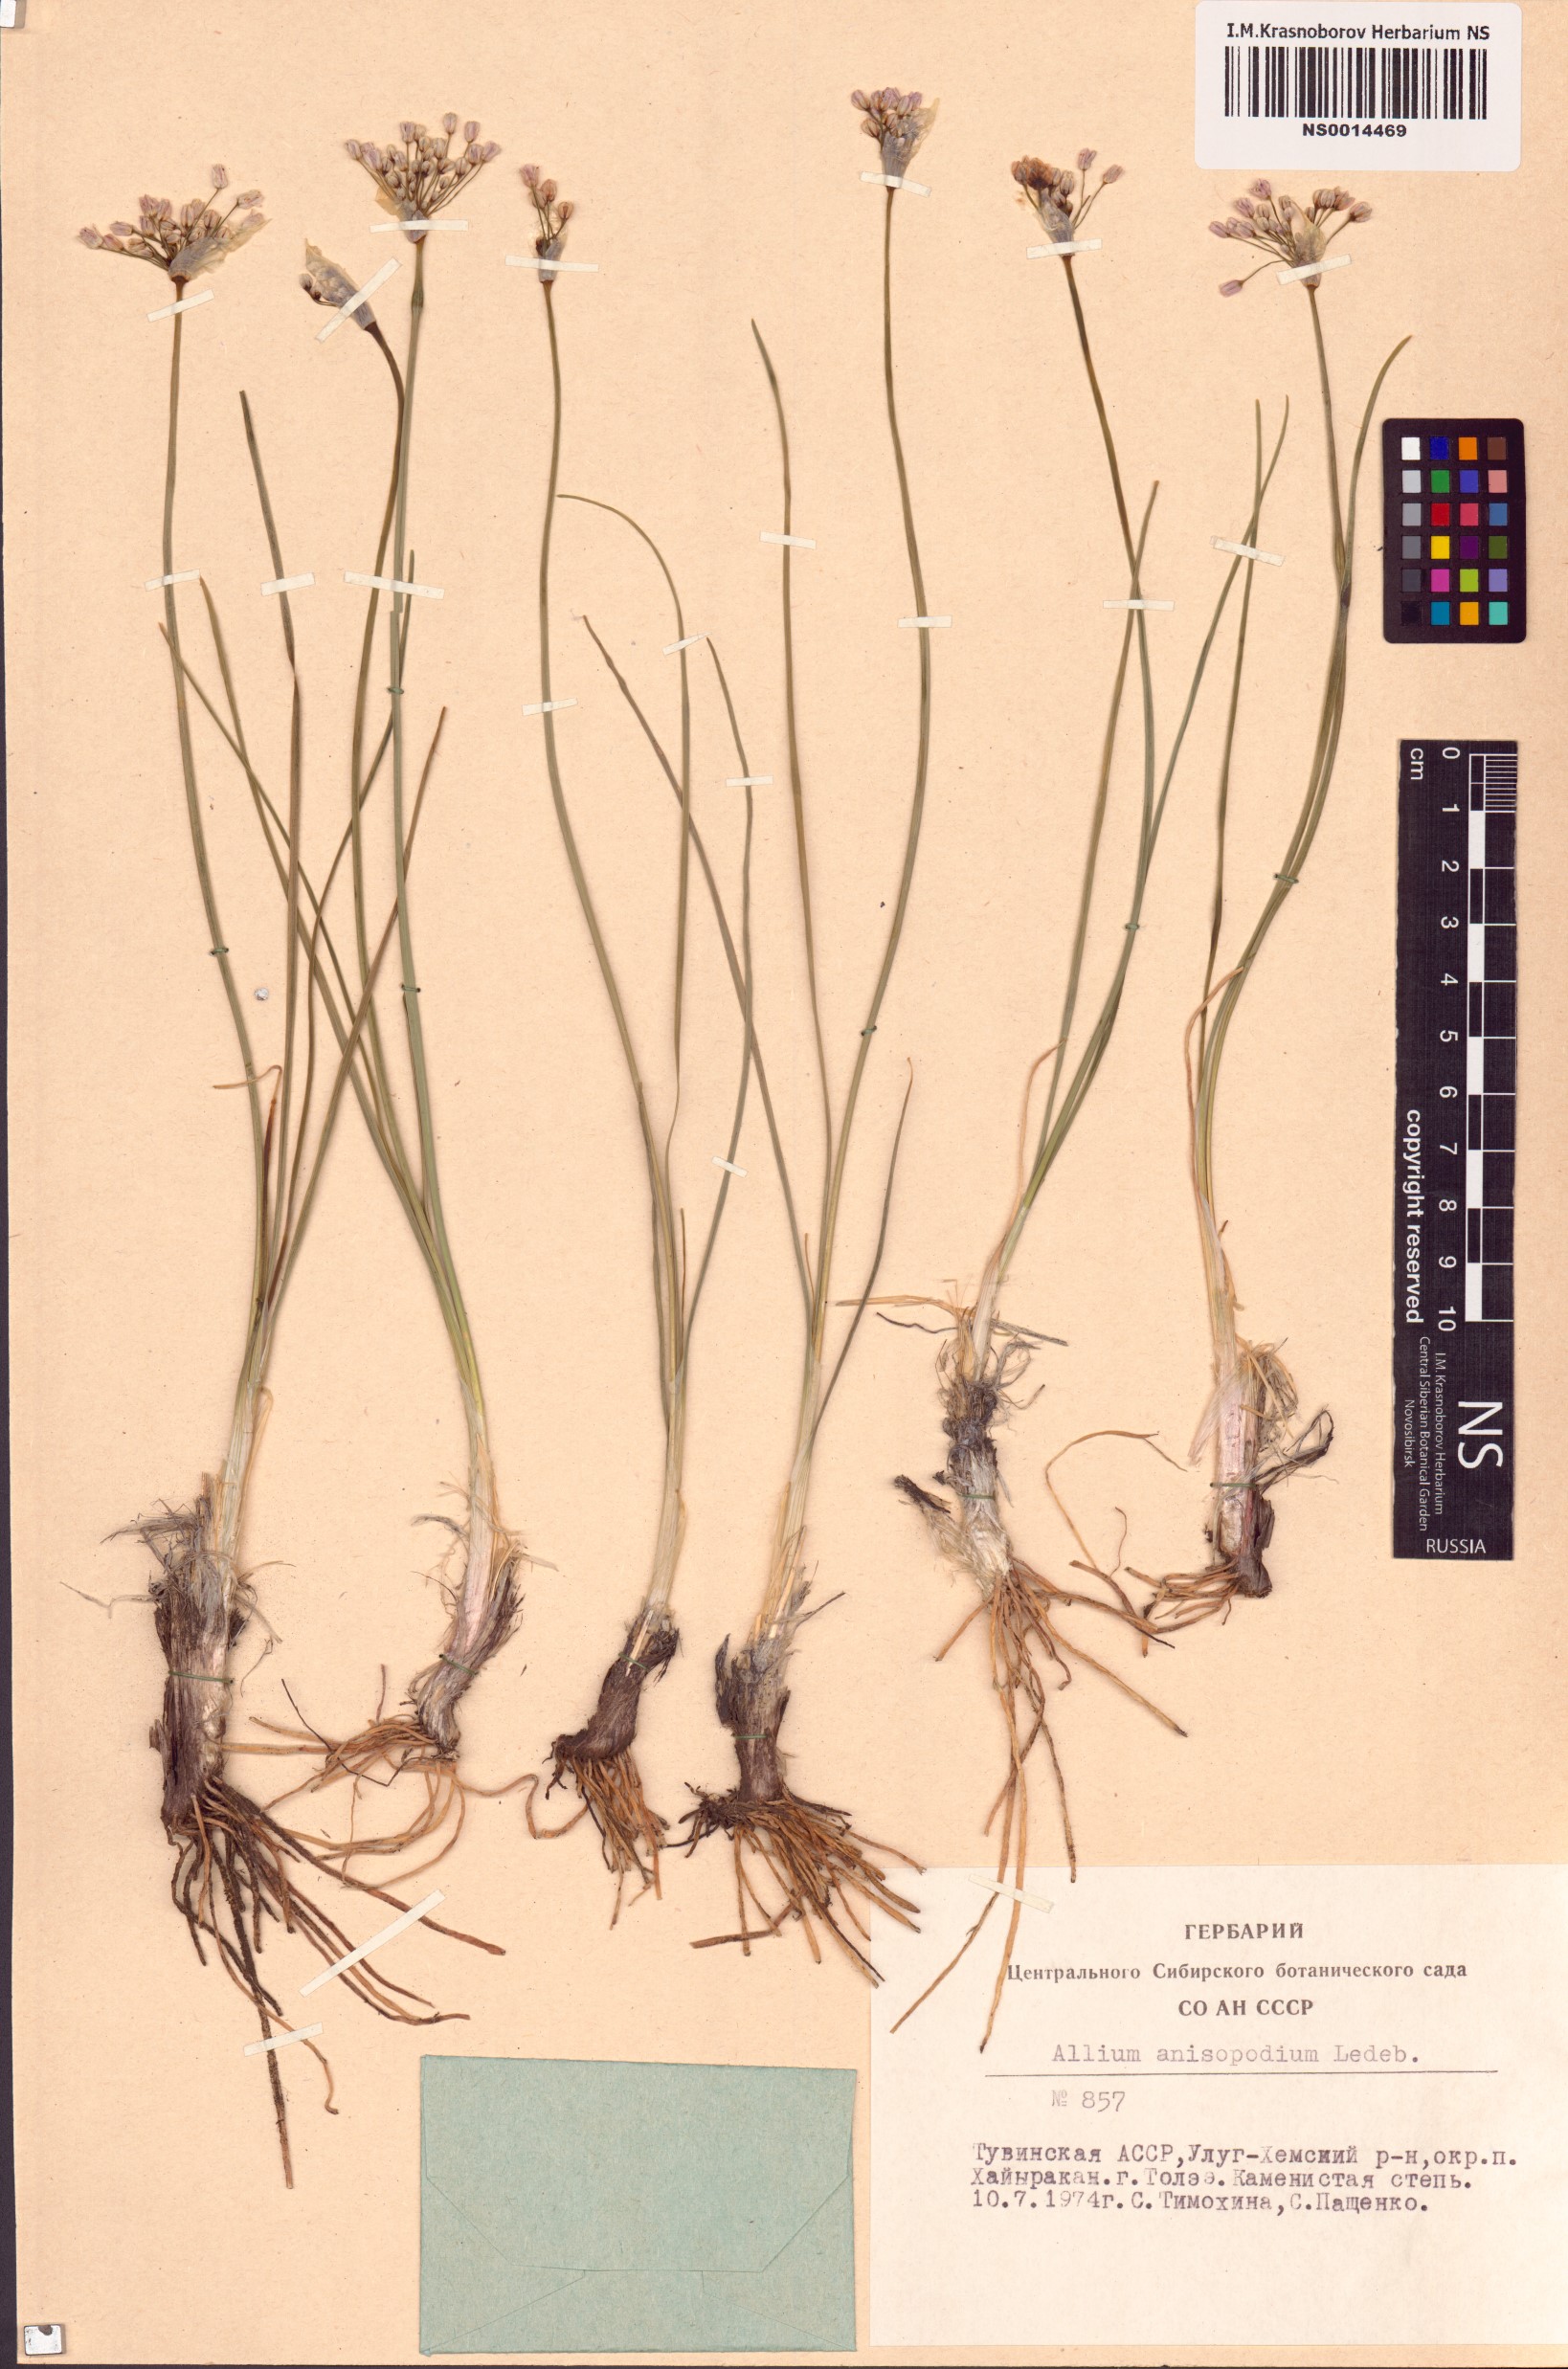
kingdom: Plantae
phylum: Tracheophyta
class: Liliopsida
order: Asparagales
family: Amaryllidaceae
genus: Allium
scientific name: Allium anisopodium
